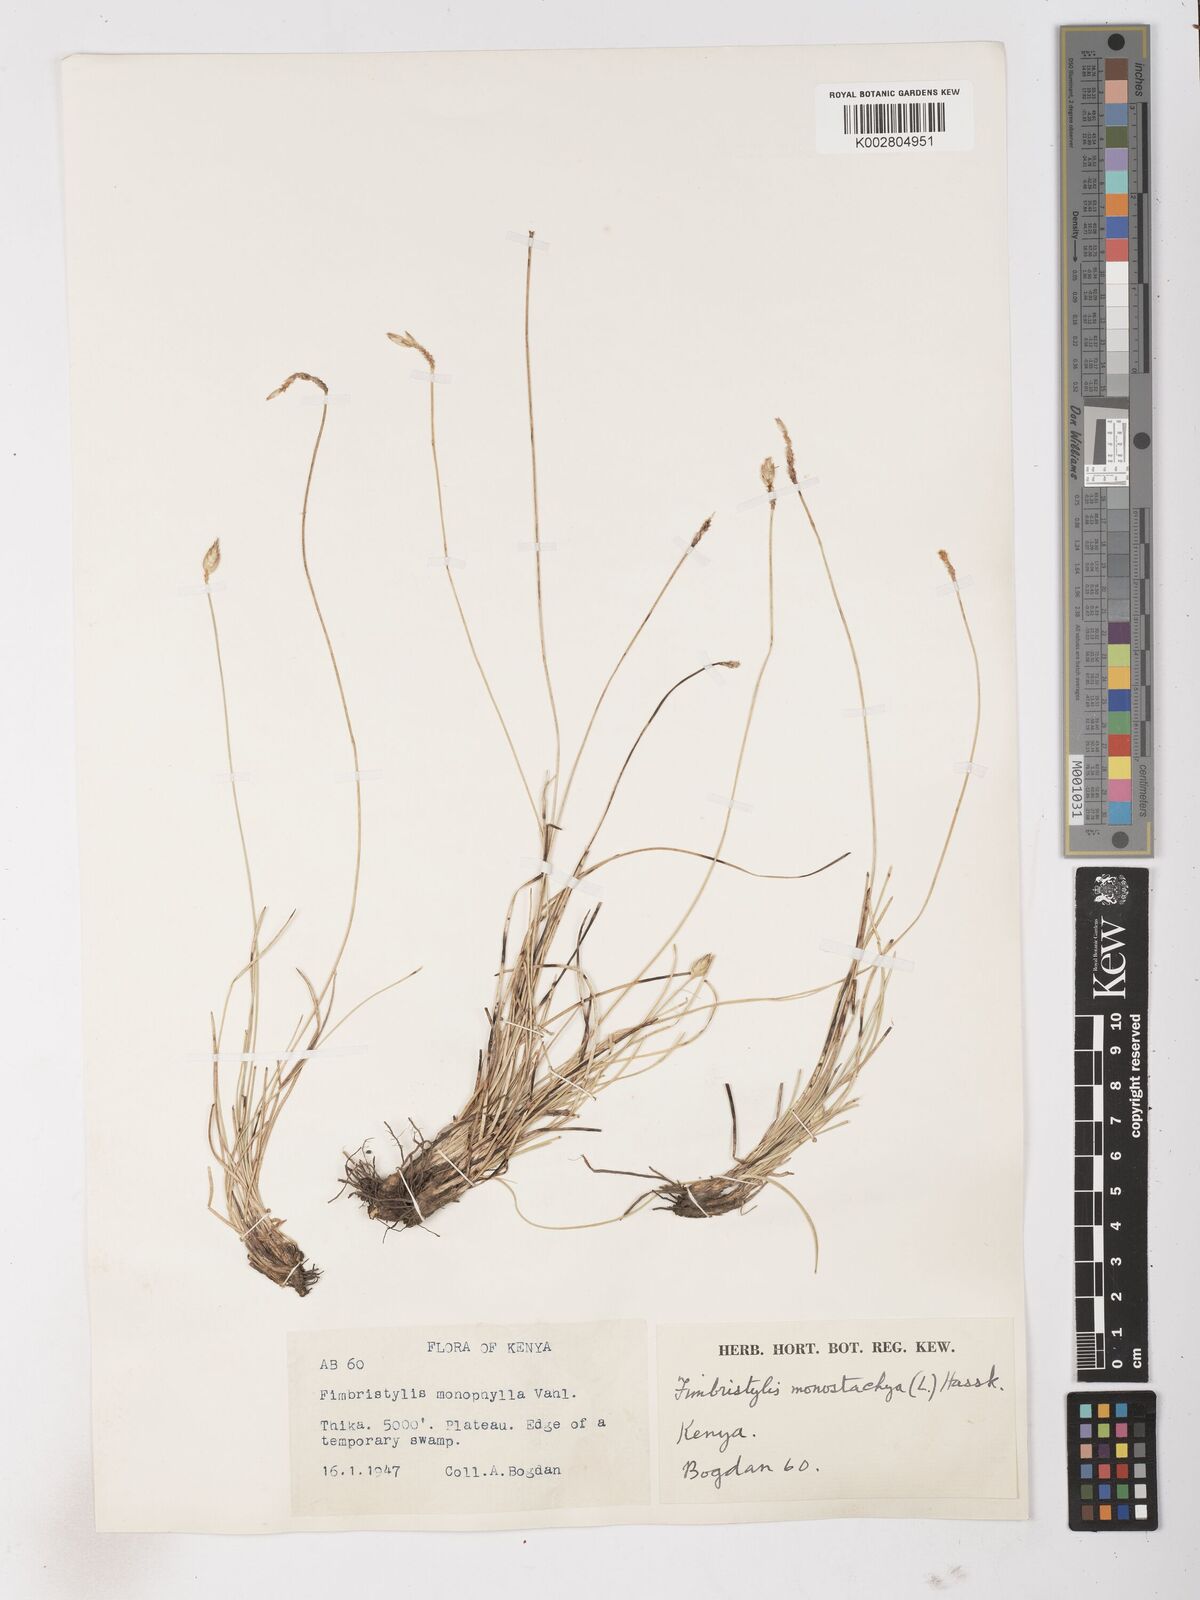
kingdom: Plantae
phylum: Tracheophyta
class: Liliopsida
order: Poales
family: Cyperaceae
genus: Abildgaardia
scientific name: Abildgaardia ovata
